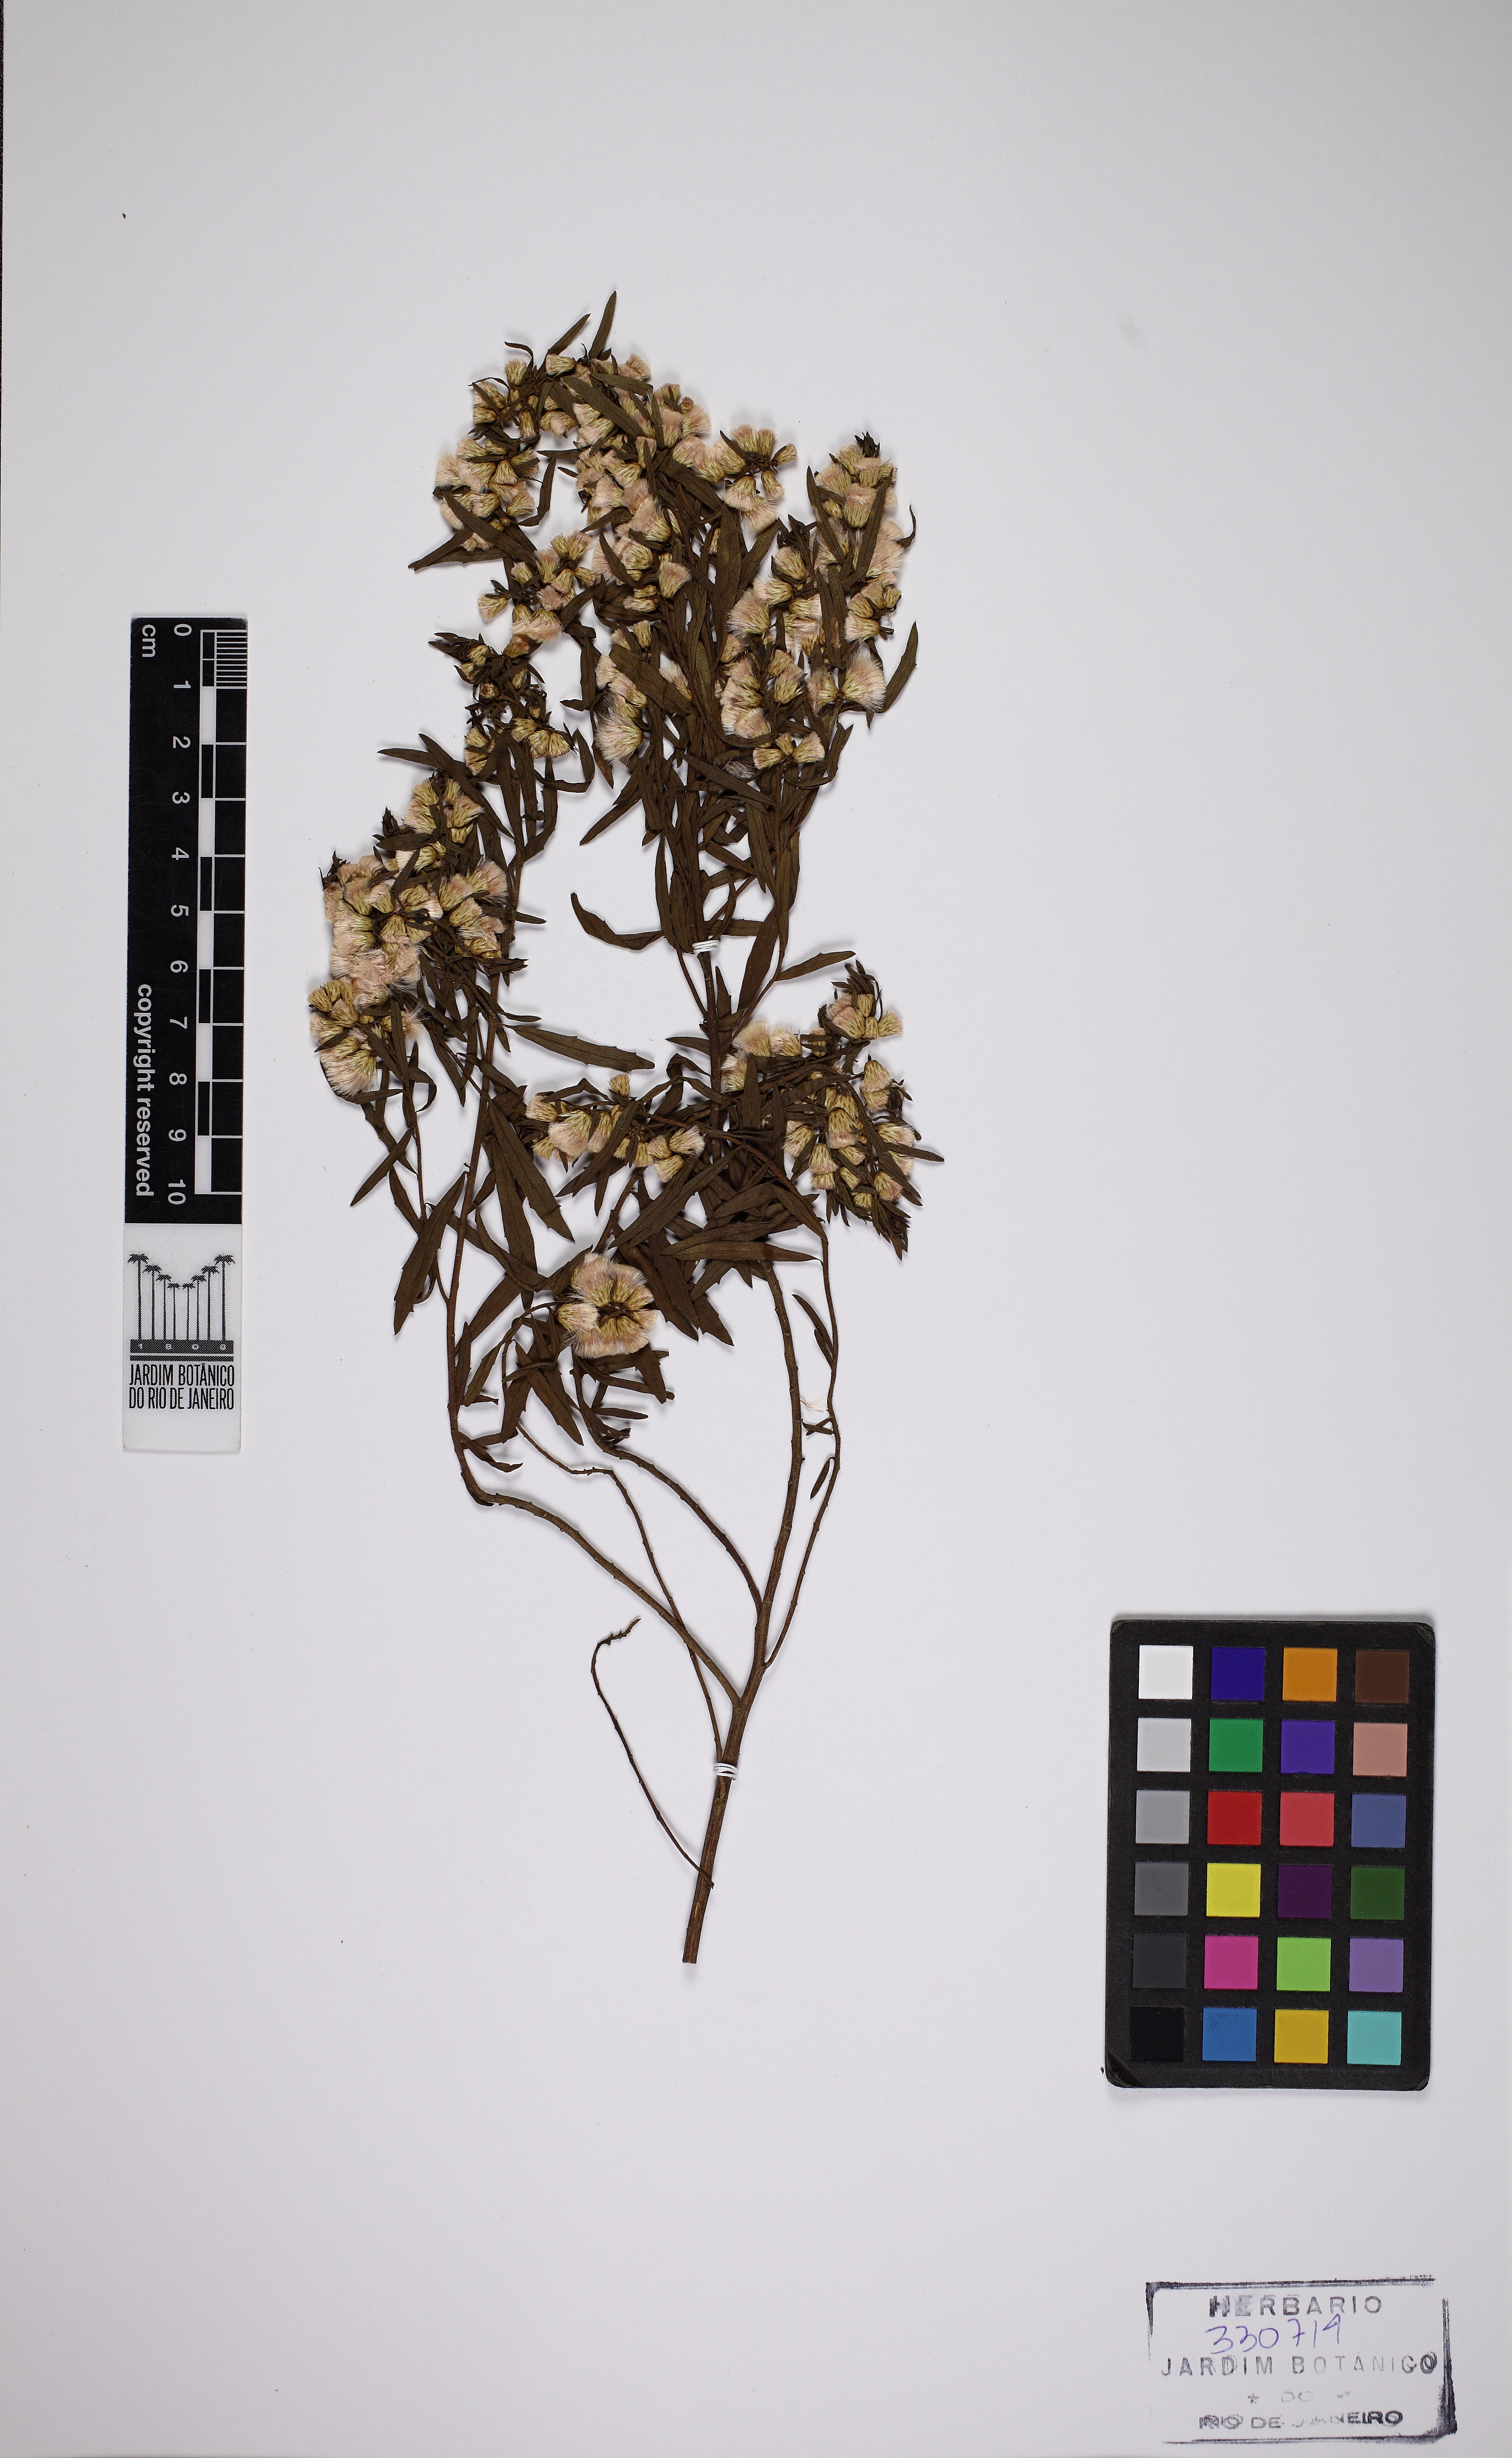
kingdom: Plantae
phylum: Tracheophyta
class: Magnoliopsida
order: Asterales
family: Asteraceae
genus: Baccharis
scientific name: Baccharis dracunculifolia
